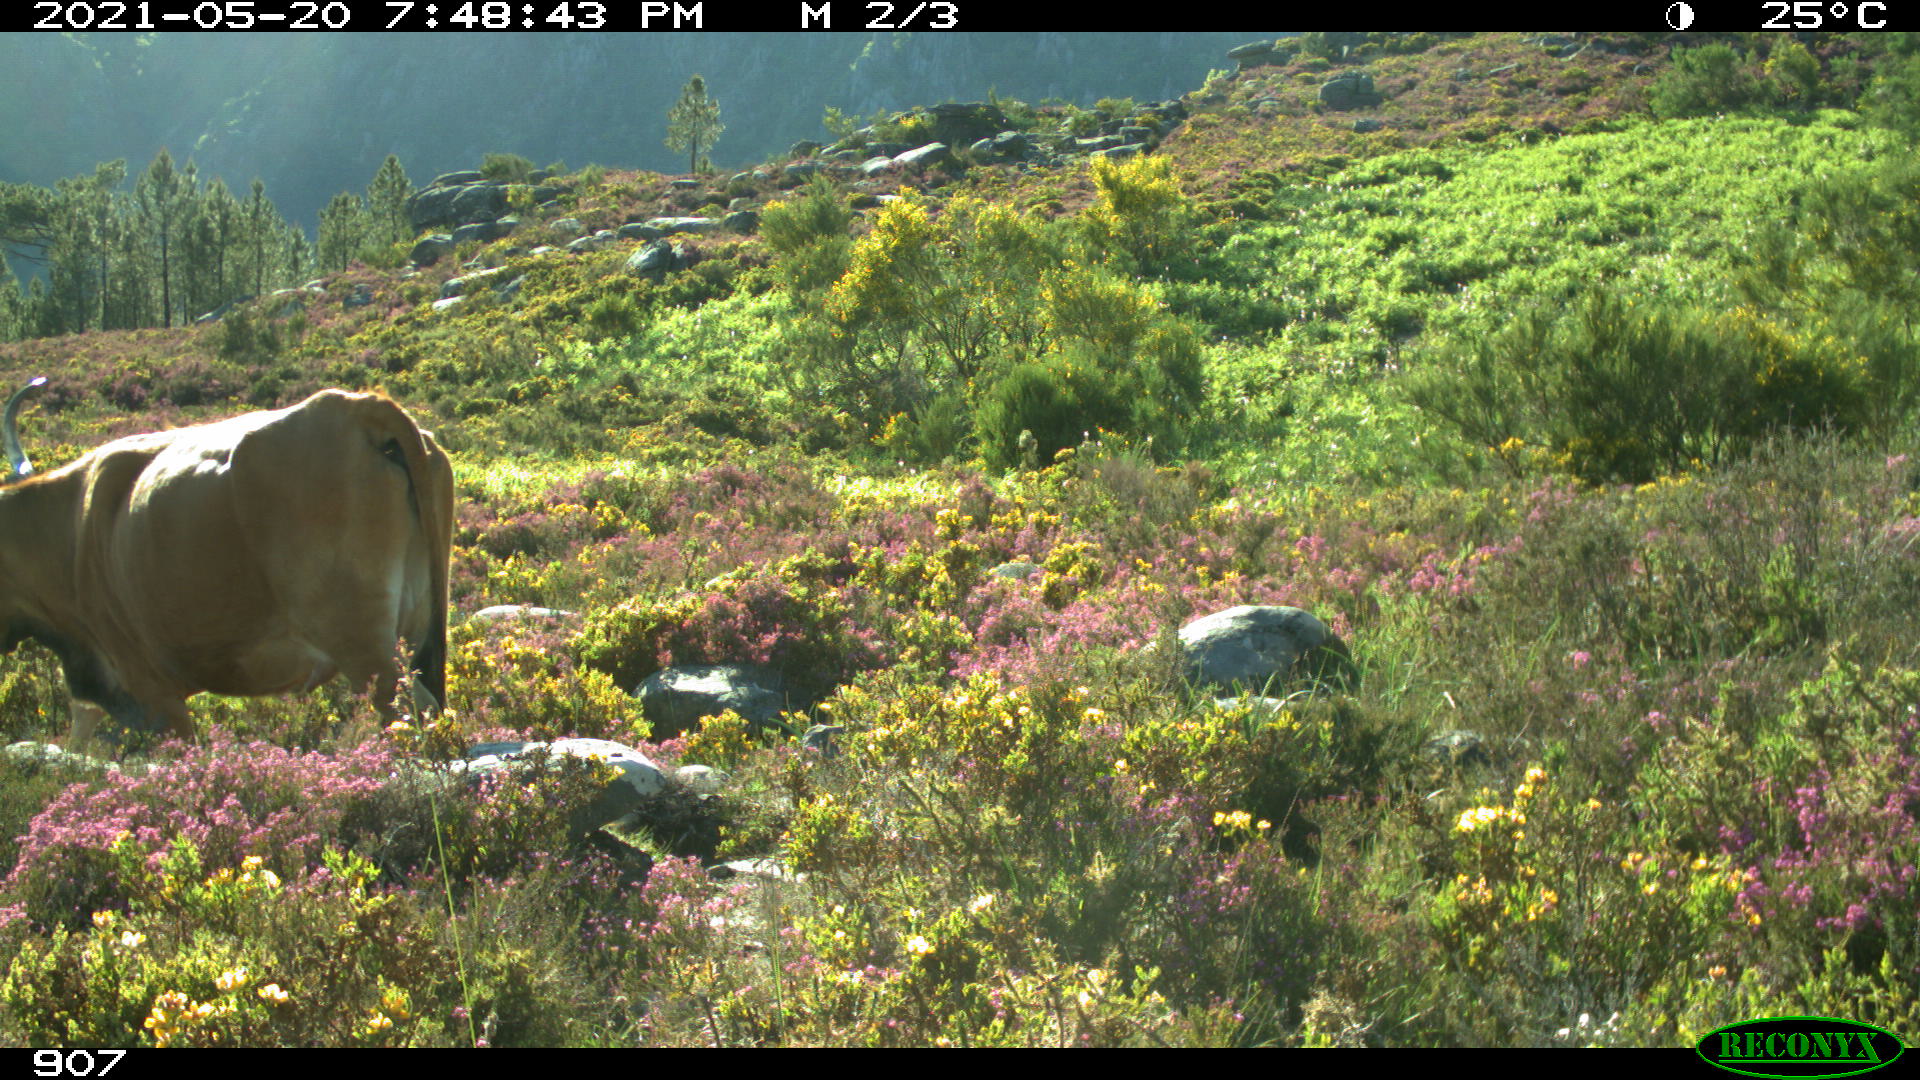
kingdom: Animalia
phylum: Chordata
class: Mammalia
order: Artiodactyla
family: Bovidae
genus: Bos
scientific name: Bos taurus
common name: Domesticated cattle
